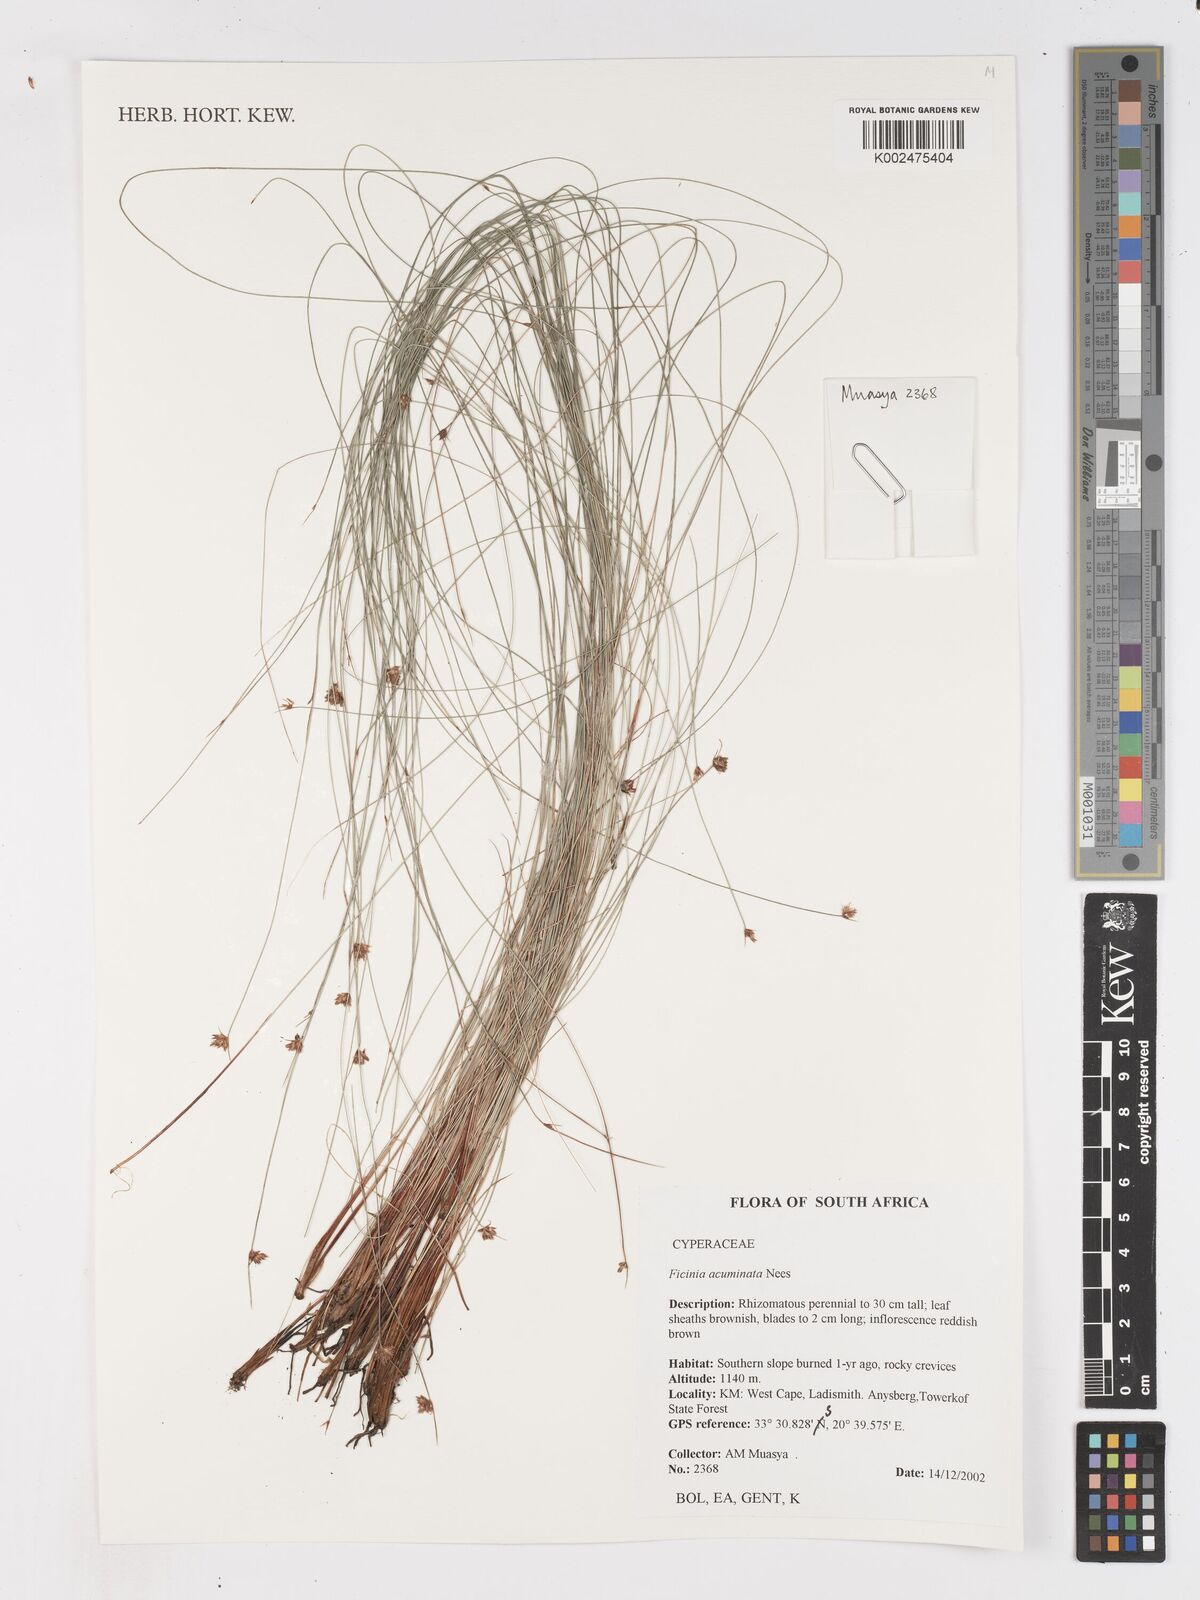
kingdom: Plantae
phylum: Tracheophyta
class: Liliopsida
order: Poales
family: Cyperaceae
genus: Ficinia
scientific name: Ficinia acuminata
